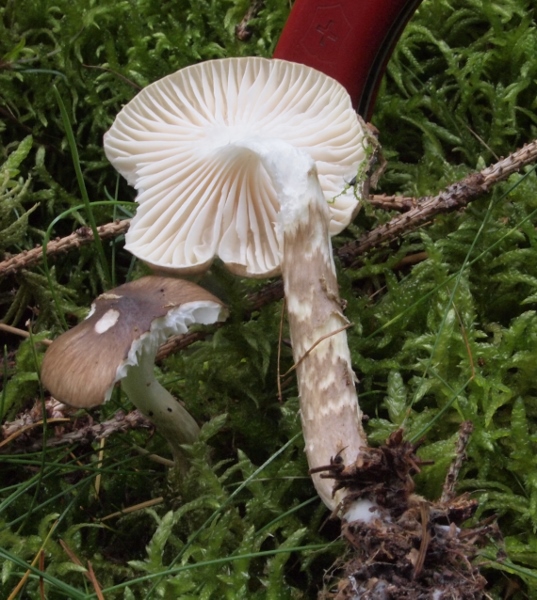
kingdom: Fungi
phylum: Basidiomycota
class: Agaricomycetes
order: Agaricales
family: Hygrophoraceae
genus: Hygrophorus
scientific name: Hygrophorus olivaceoalbus
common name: hvidbrun sneglehat
